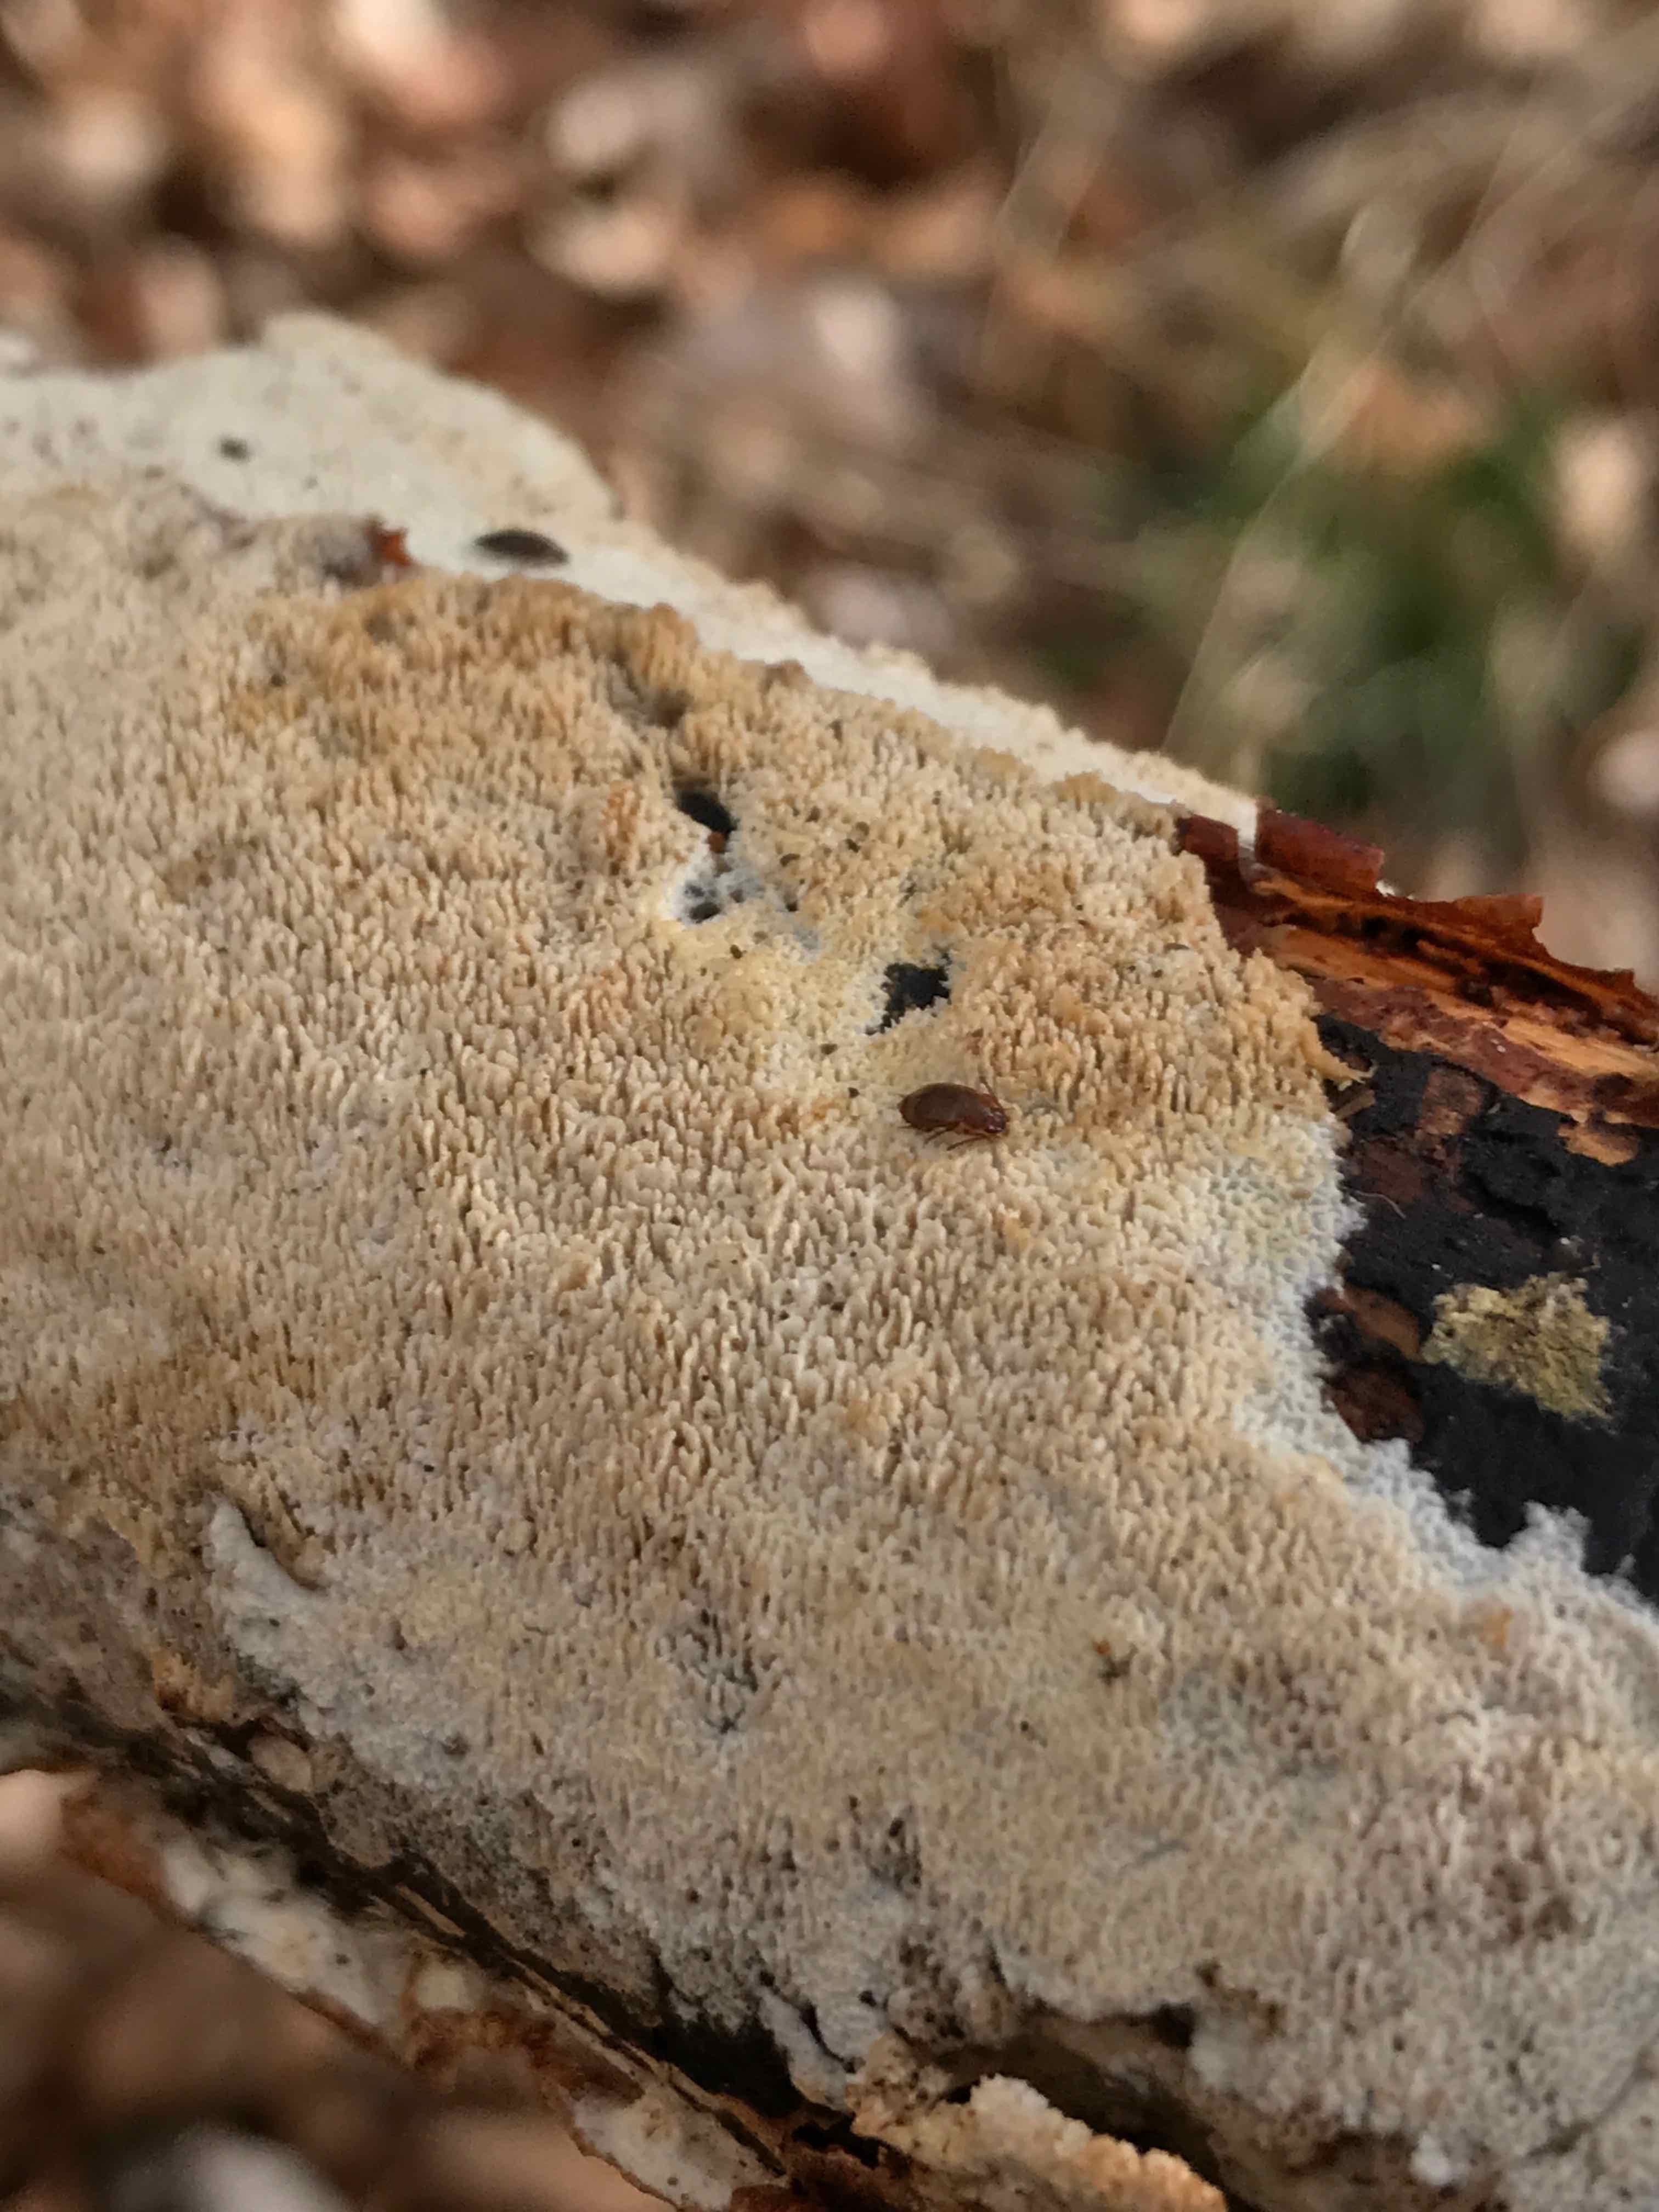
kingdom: Fungi
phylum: Basidiomycota
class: Agaricomycetes
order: Hymenochaetales
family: Schizoporaceae
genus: Schizopora
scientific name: Schizopora paradoxa
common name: hvid tandsvamp
